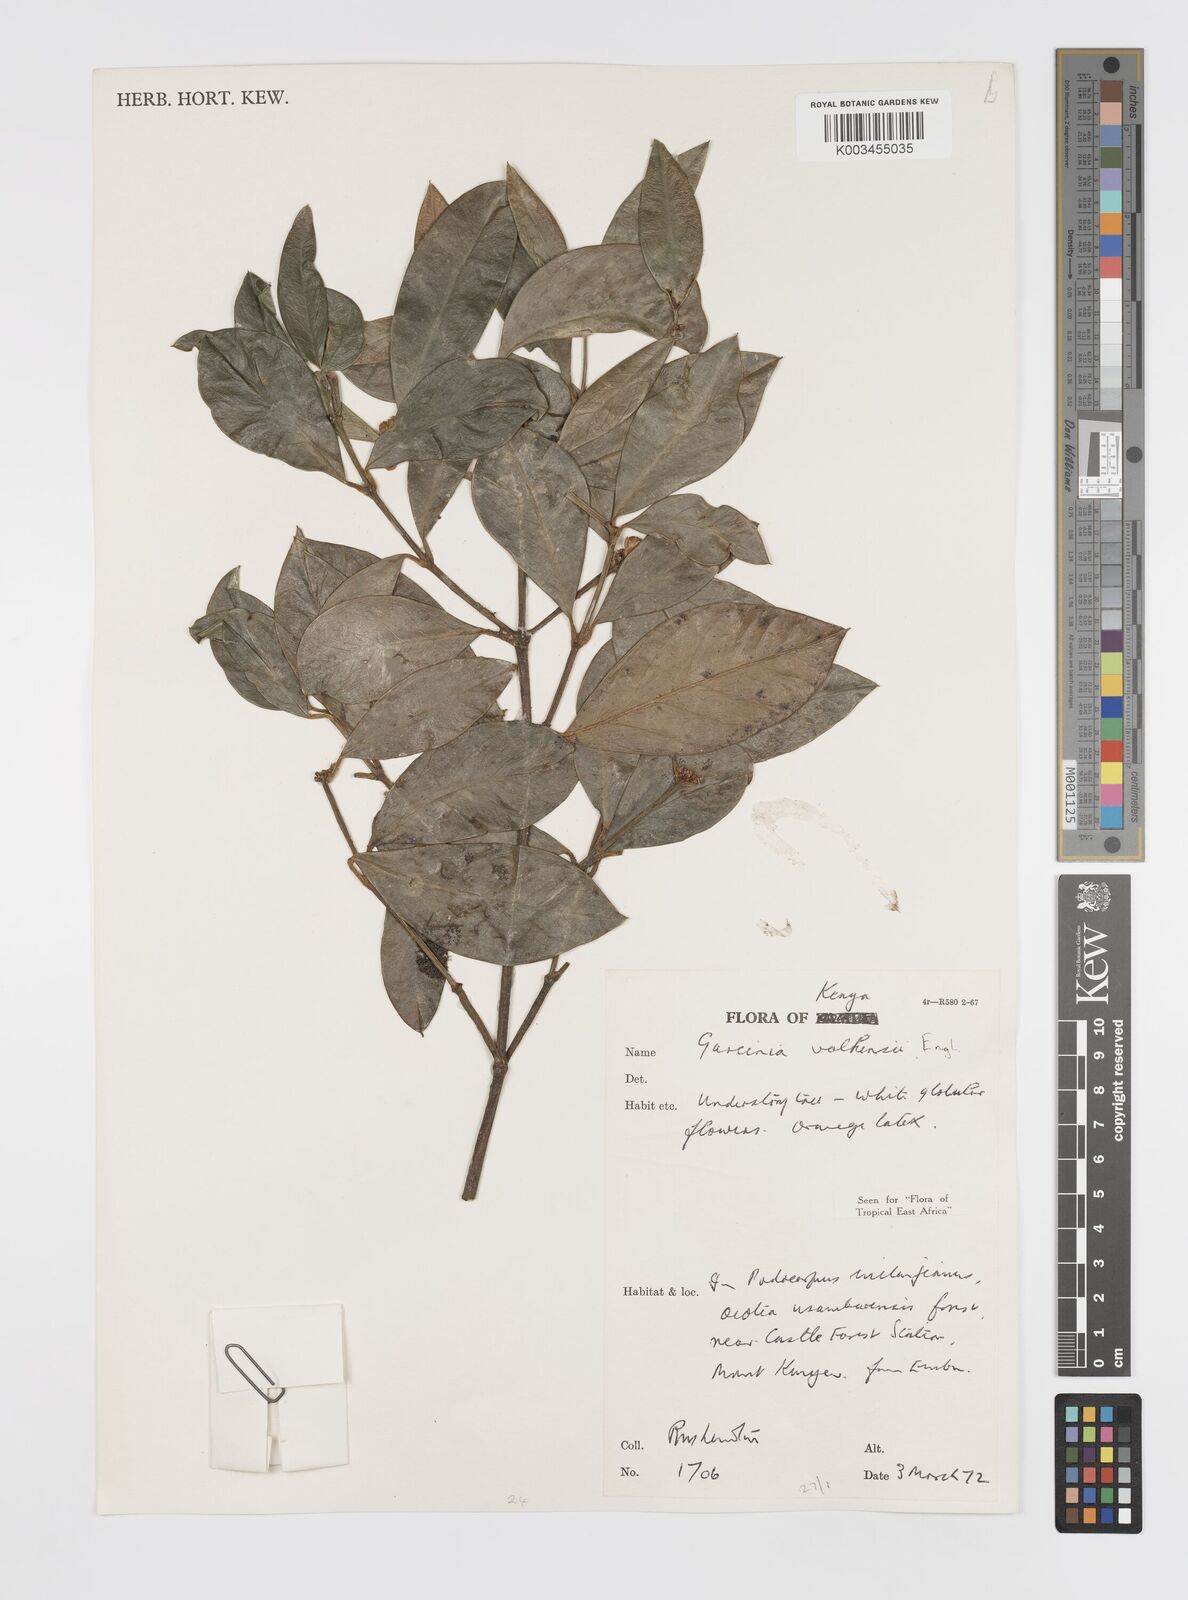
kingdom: Plantae
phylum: Tracheophyta
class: Magnoliopsida
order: Malpighiales
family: Clusiaceae
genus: Garcinia
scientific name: Garcinia volkensii
